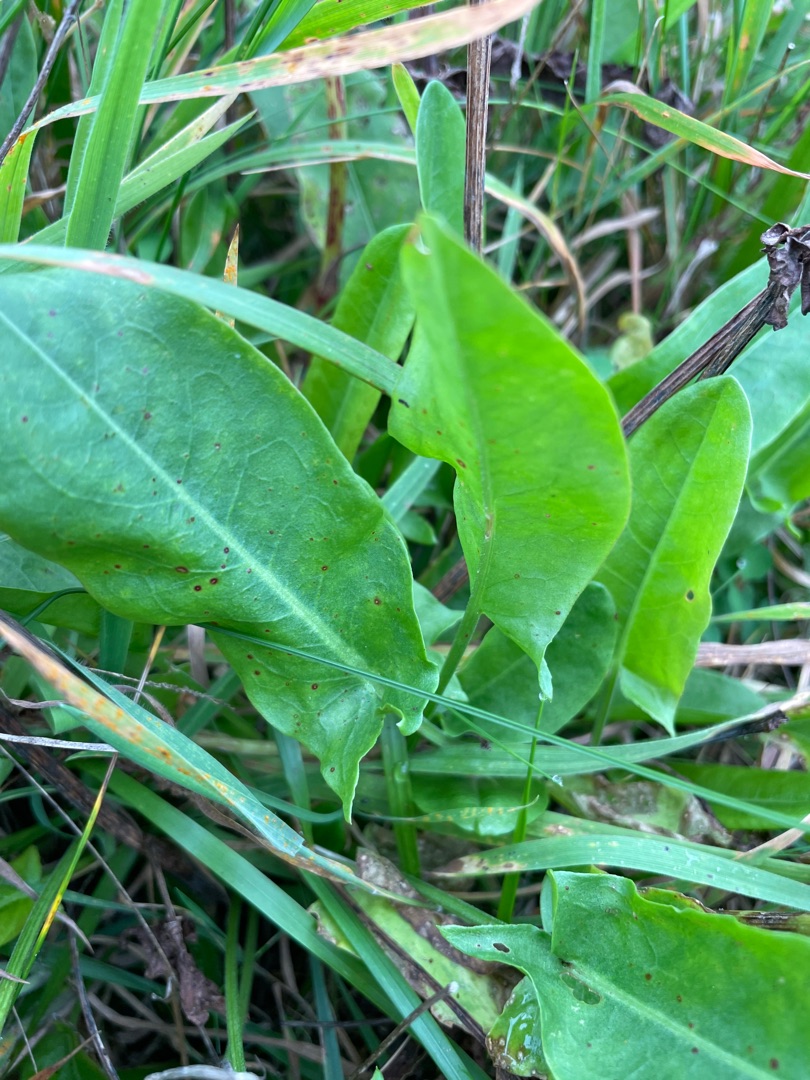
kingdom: Plantae
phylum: Tracheophyta
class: Magnoliopsida
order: Caryophyllales
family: Polygonaceae
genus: Rumex
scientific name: Rumex acetosa
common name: Almindelig syre
